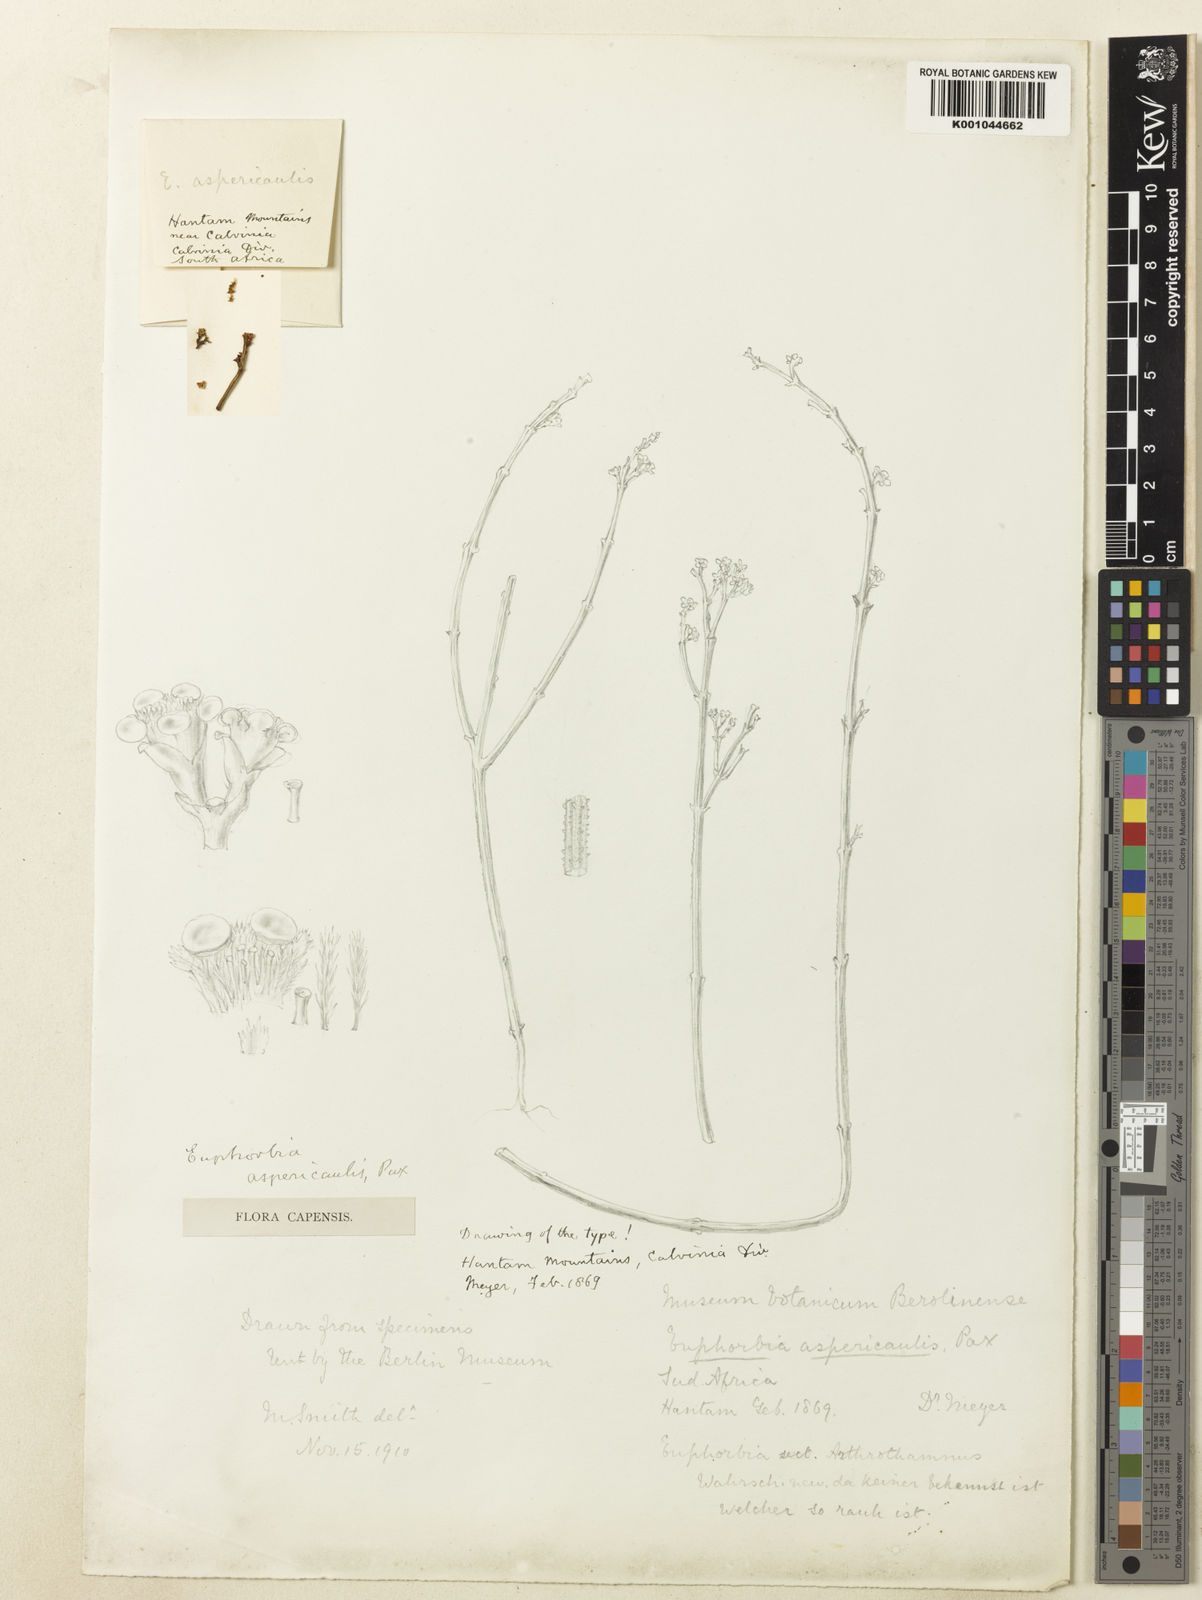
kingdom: Plantae
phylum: Tracheophyta
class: Magnoliopsida
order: Malpighiales
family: Euphorbiaceae
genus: Euphorbia
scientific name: Euphorbia muricata
